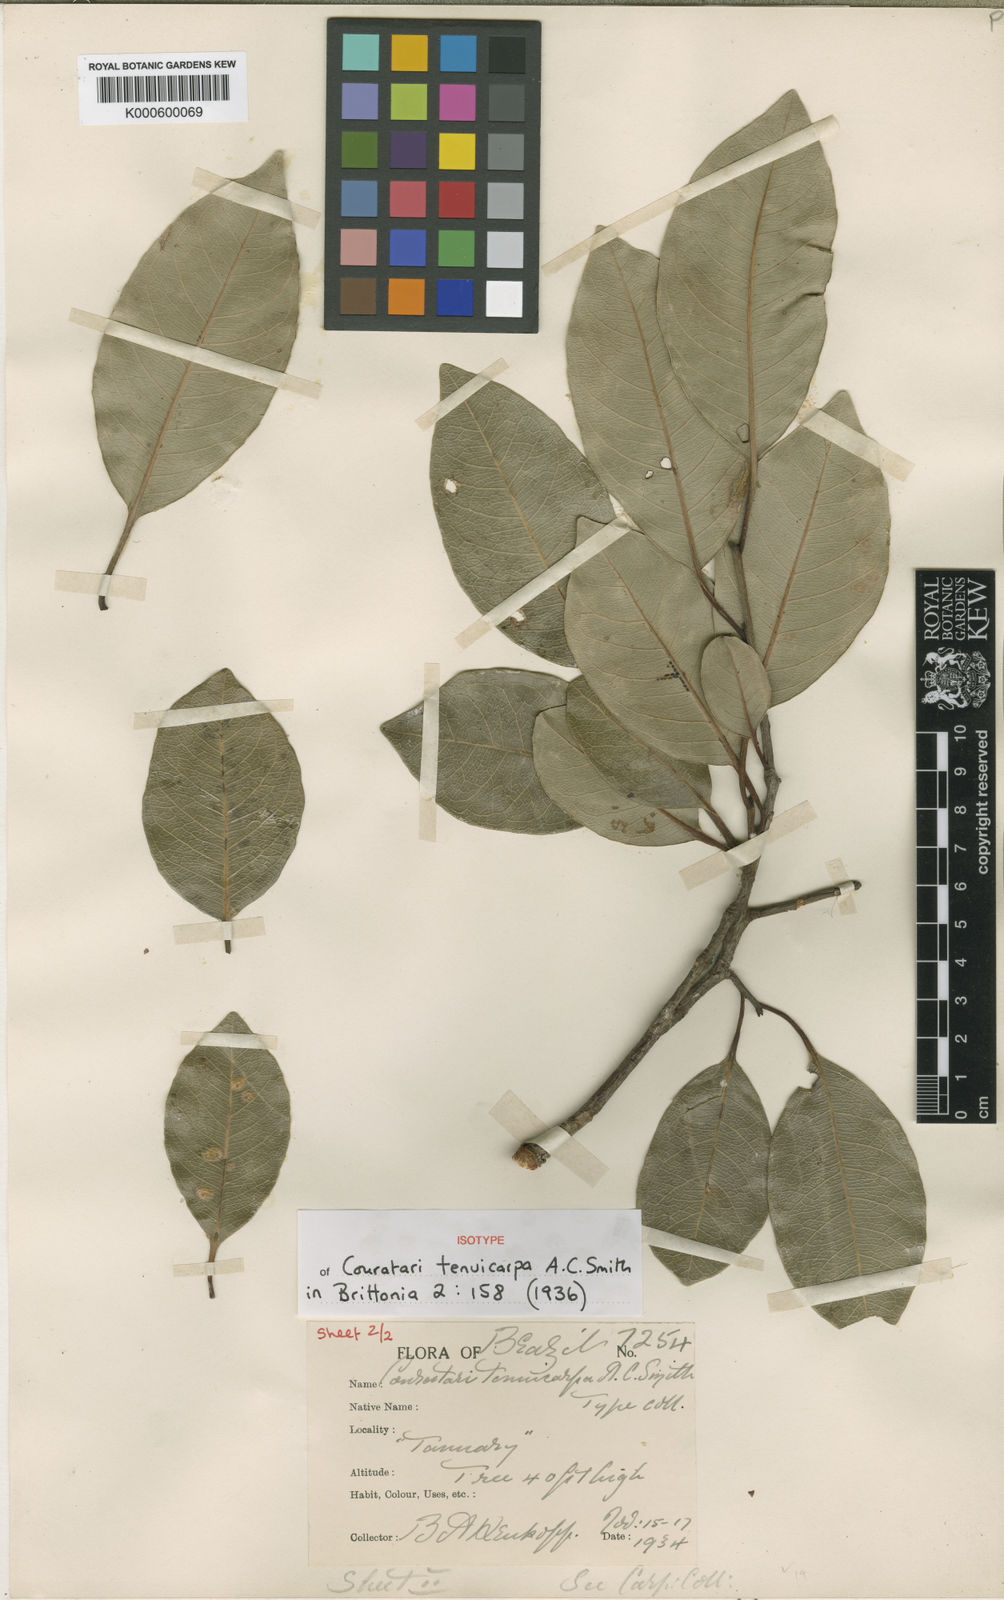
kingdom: Plantae
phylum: Tracheophyta
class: Magnoliopsida
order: Ericales
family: Lecythidaceae
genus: Couratari
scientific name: Couratari tenuicarpa
